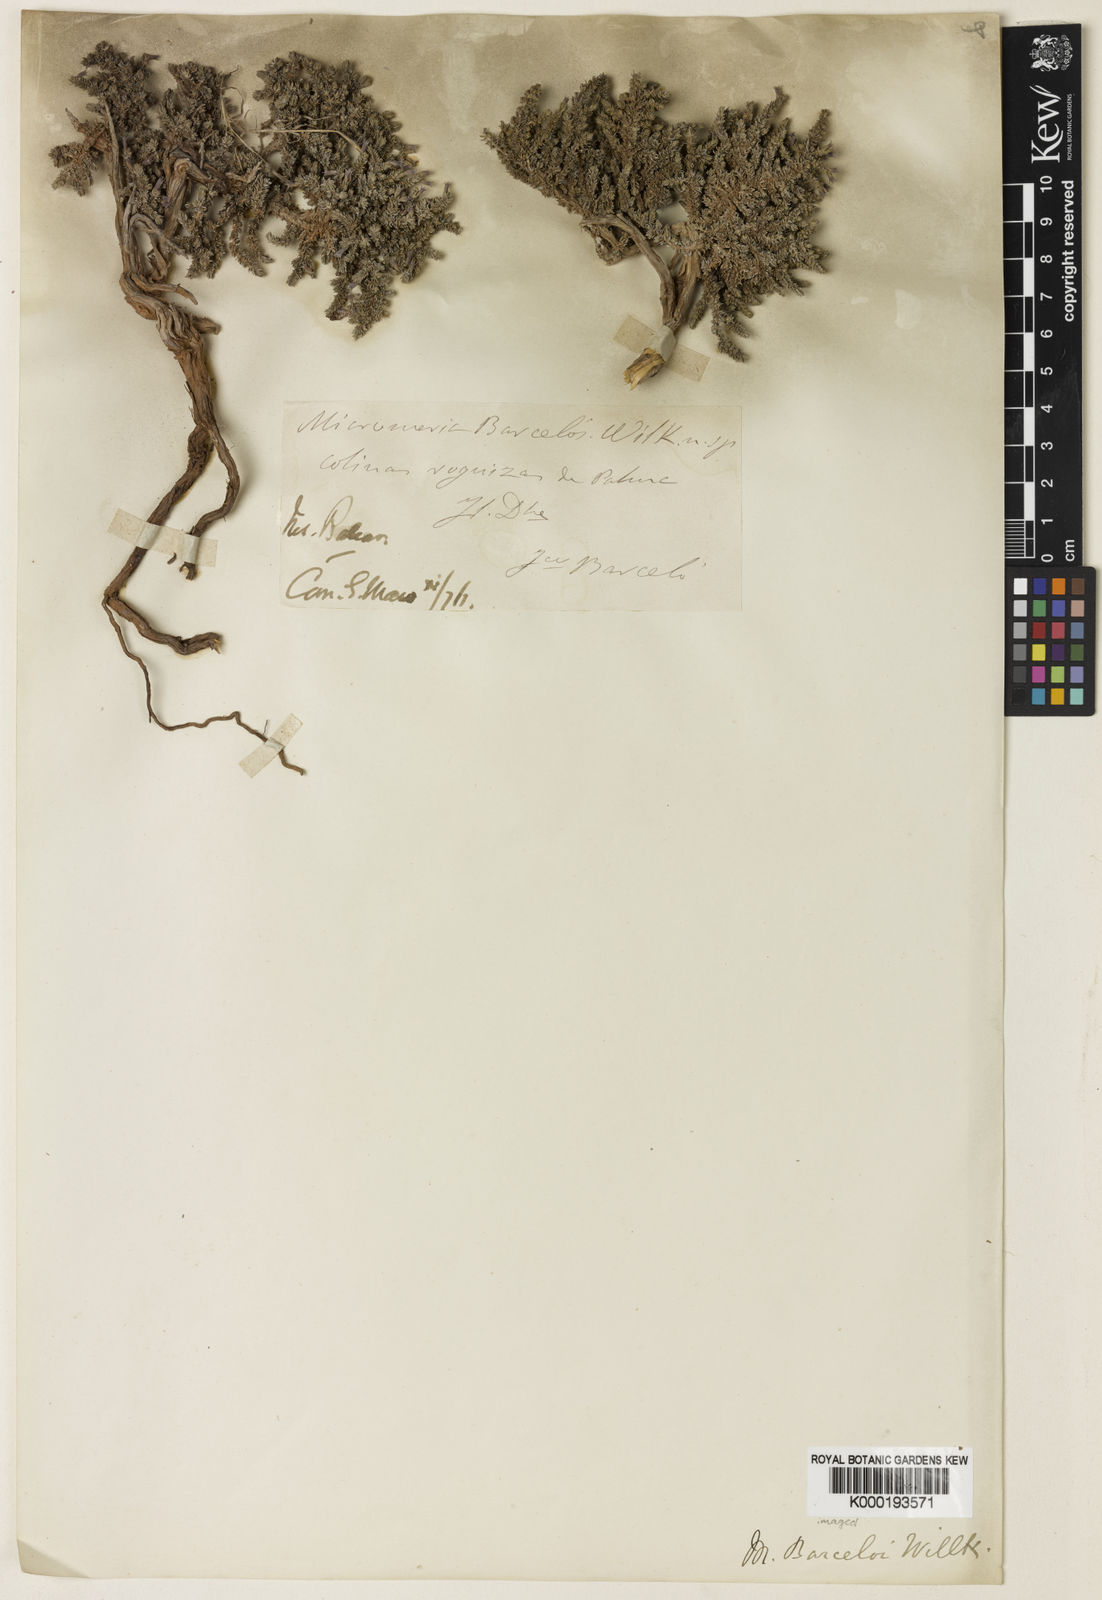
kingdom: Plantae
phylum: Tracheophyta
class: Magnoliopsida
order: Lamiales
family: Lamiaceae
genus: Micromeria
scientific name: Micromeria inodora
